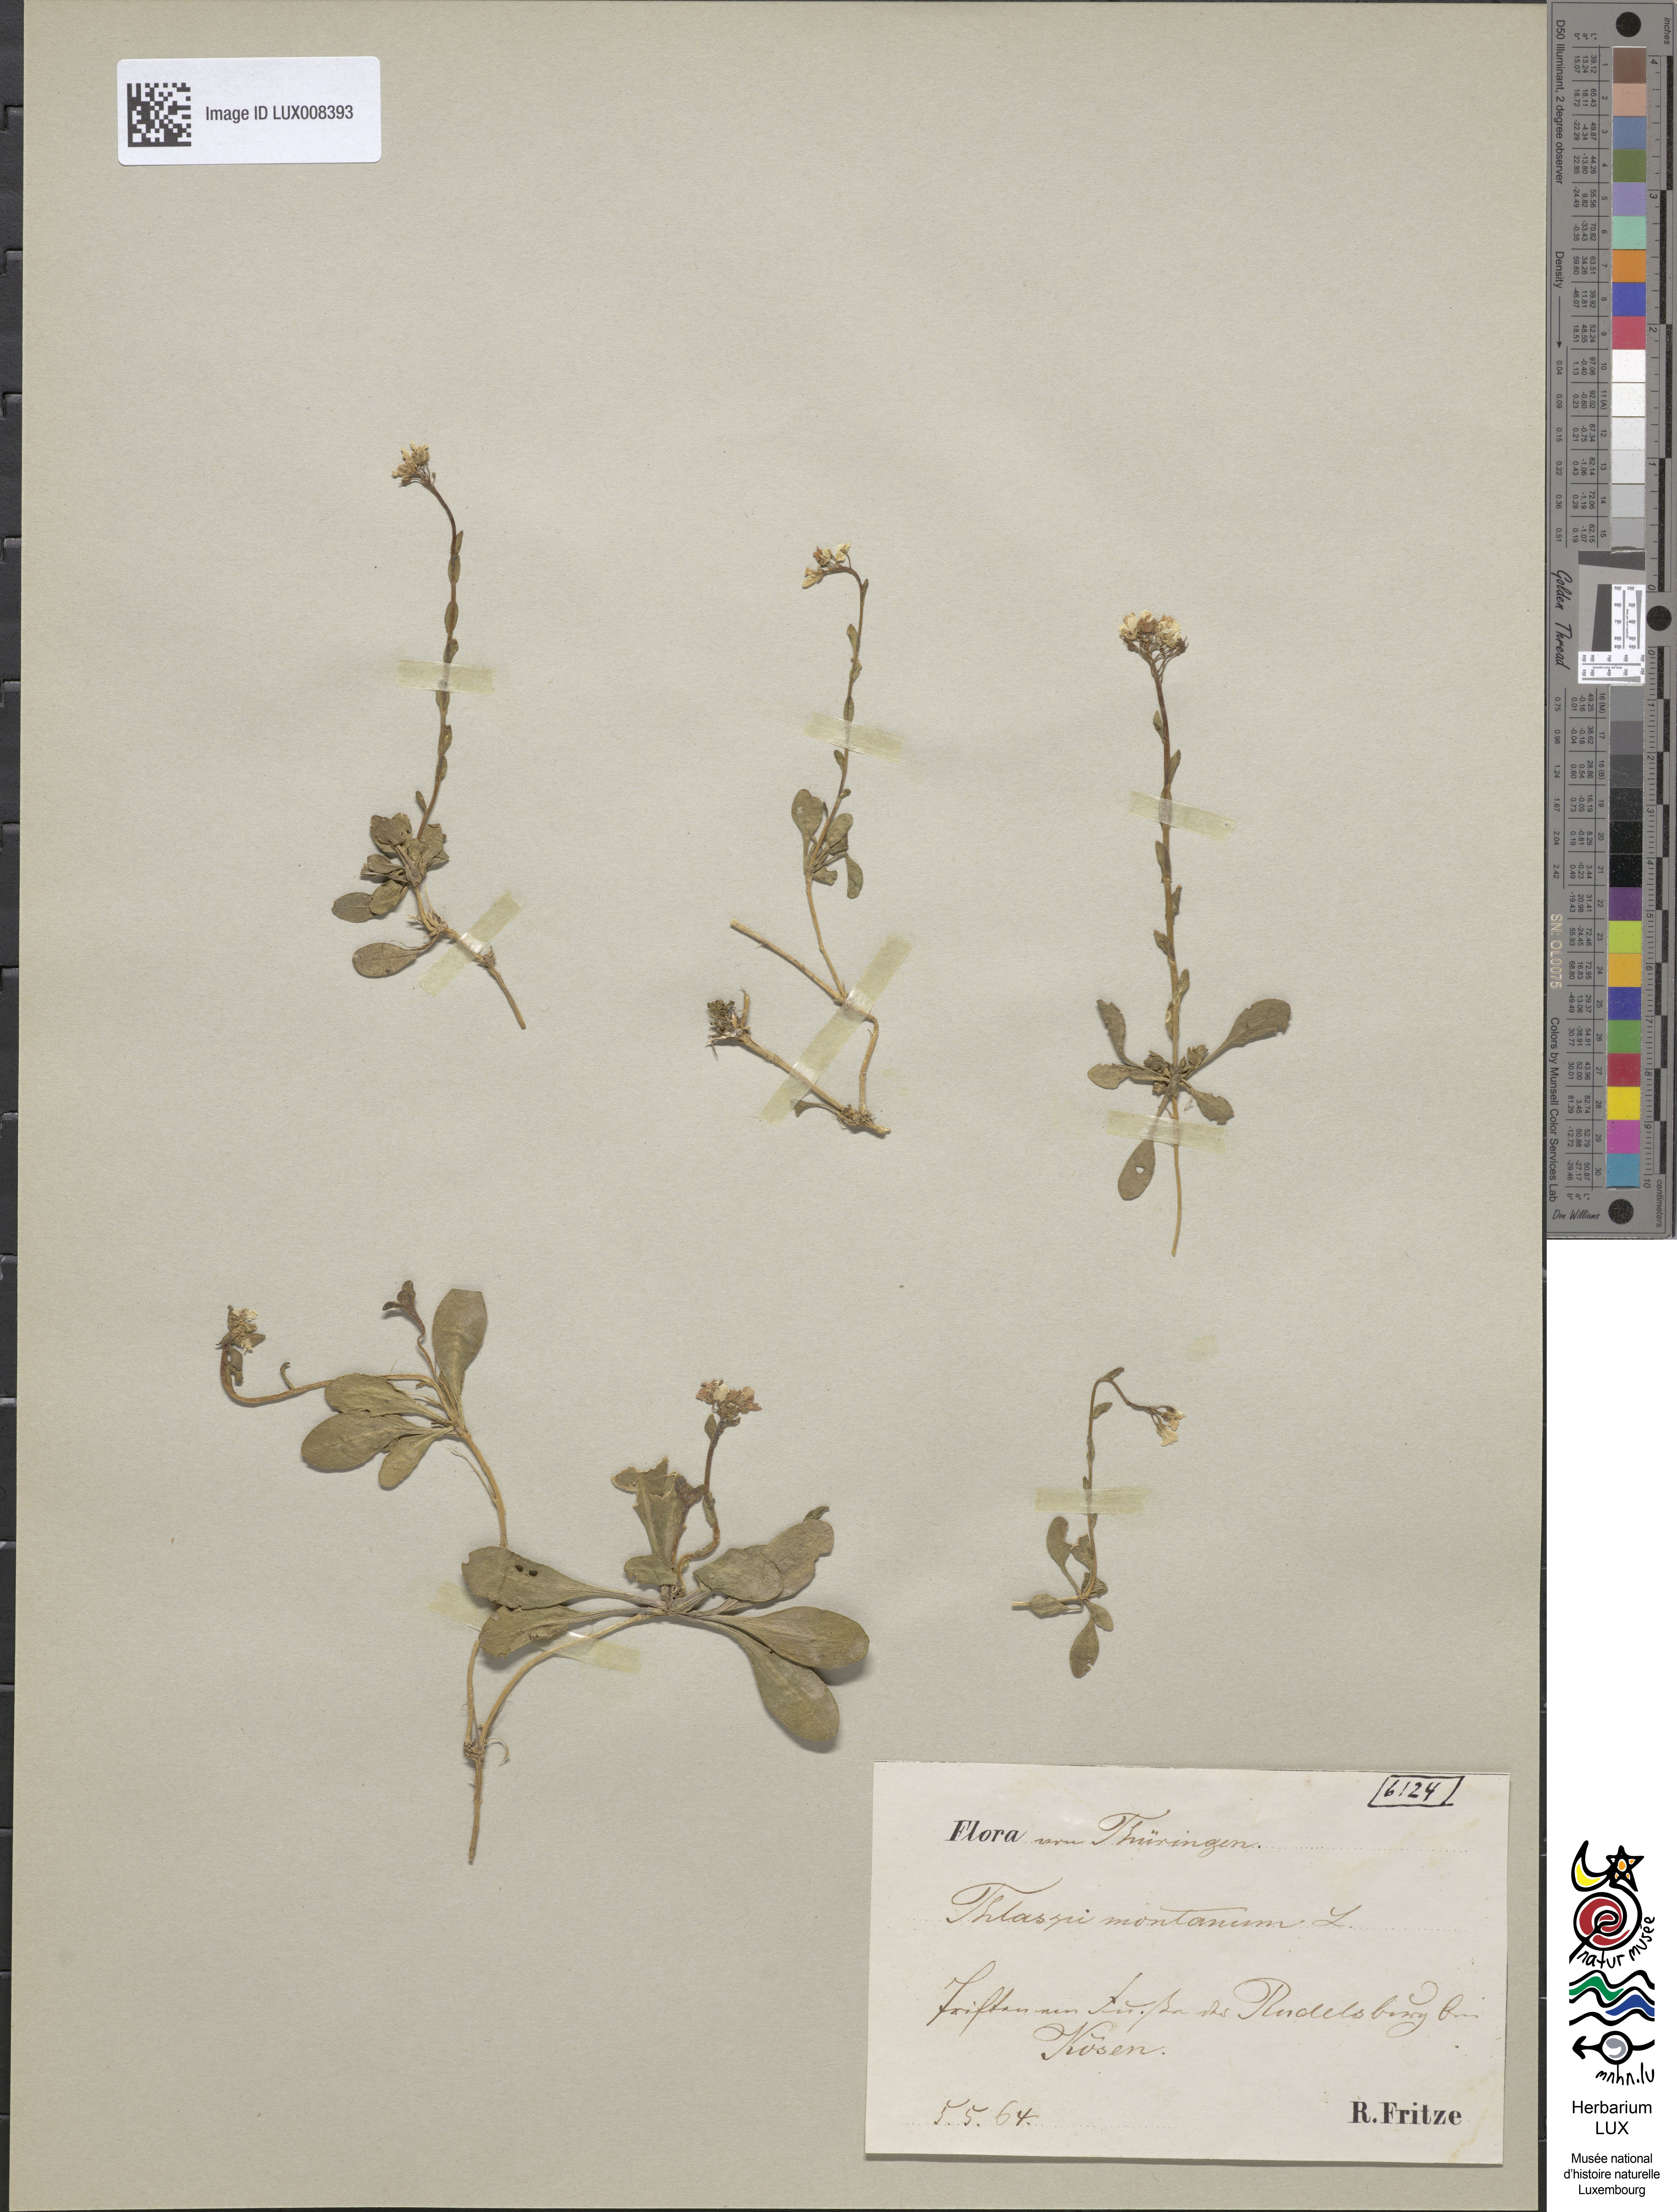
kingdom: Plantae
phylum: Tracheophyta
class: Magnoliopsida
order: Brassicales
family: Brassicaceae
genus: Noccaea
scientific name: Noccaea montana
